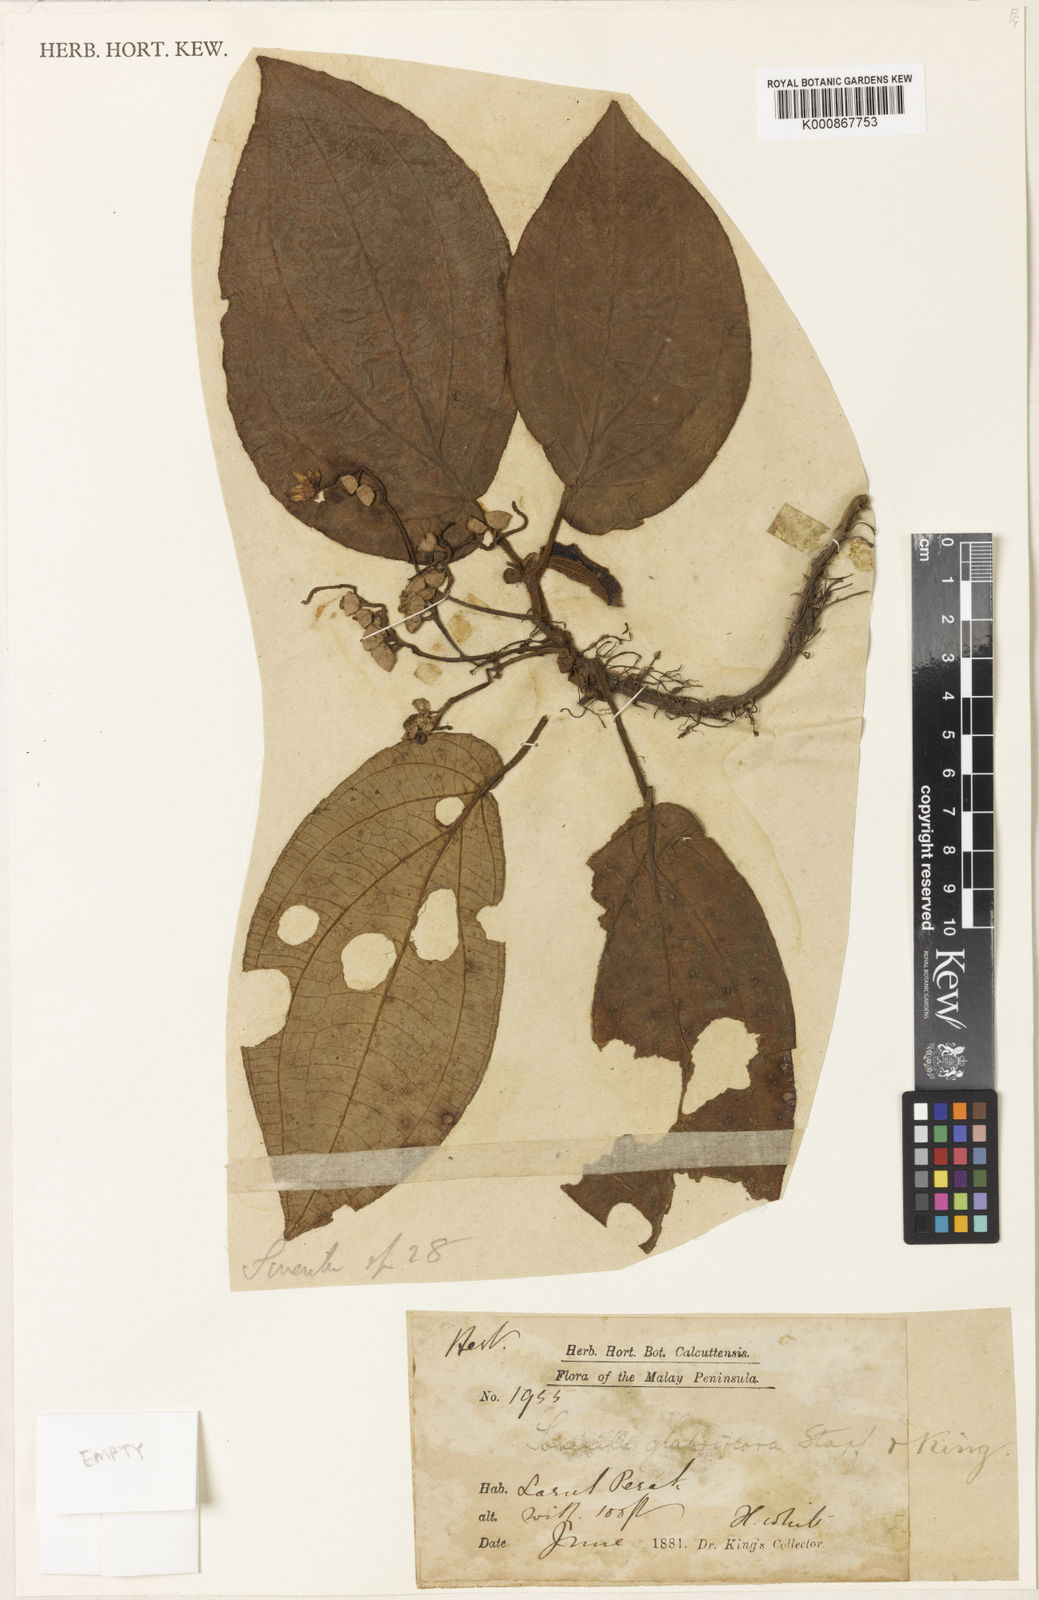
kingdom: Plantae
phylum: Tracheophyta
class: Magnoliopsida
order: Myrtales
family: Melastomataceae
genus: Sonerila
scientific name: Sonerila glabriflora
